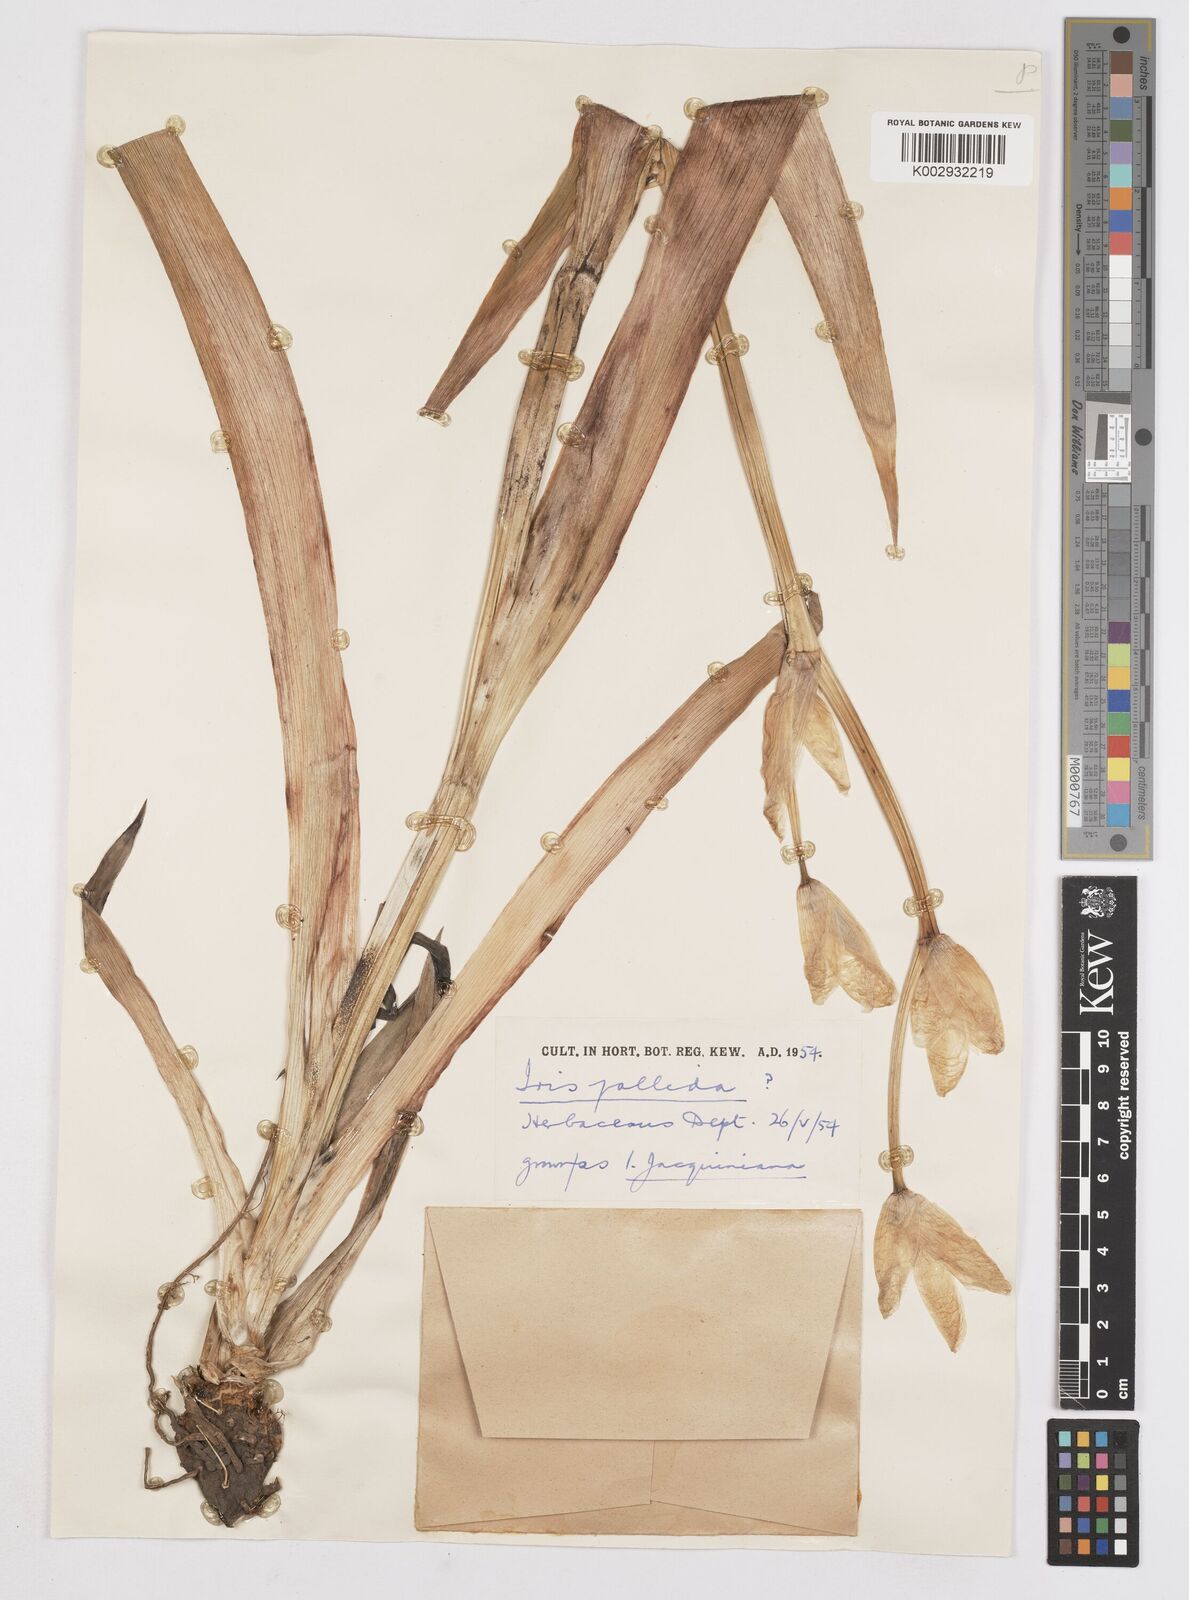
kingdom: Plantae
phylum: Tracheophyta
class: Liliopsida
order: Asparagales
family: Iridaceae
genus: Iris
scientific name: Iris halophila
